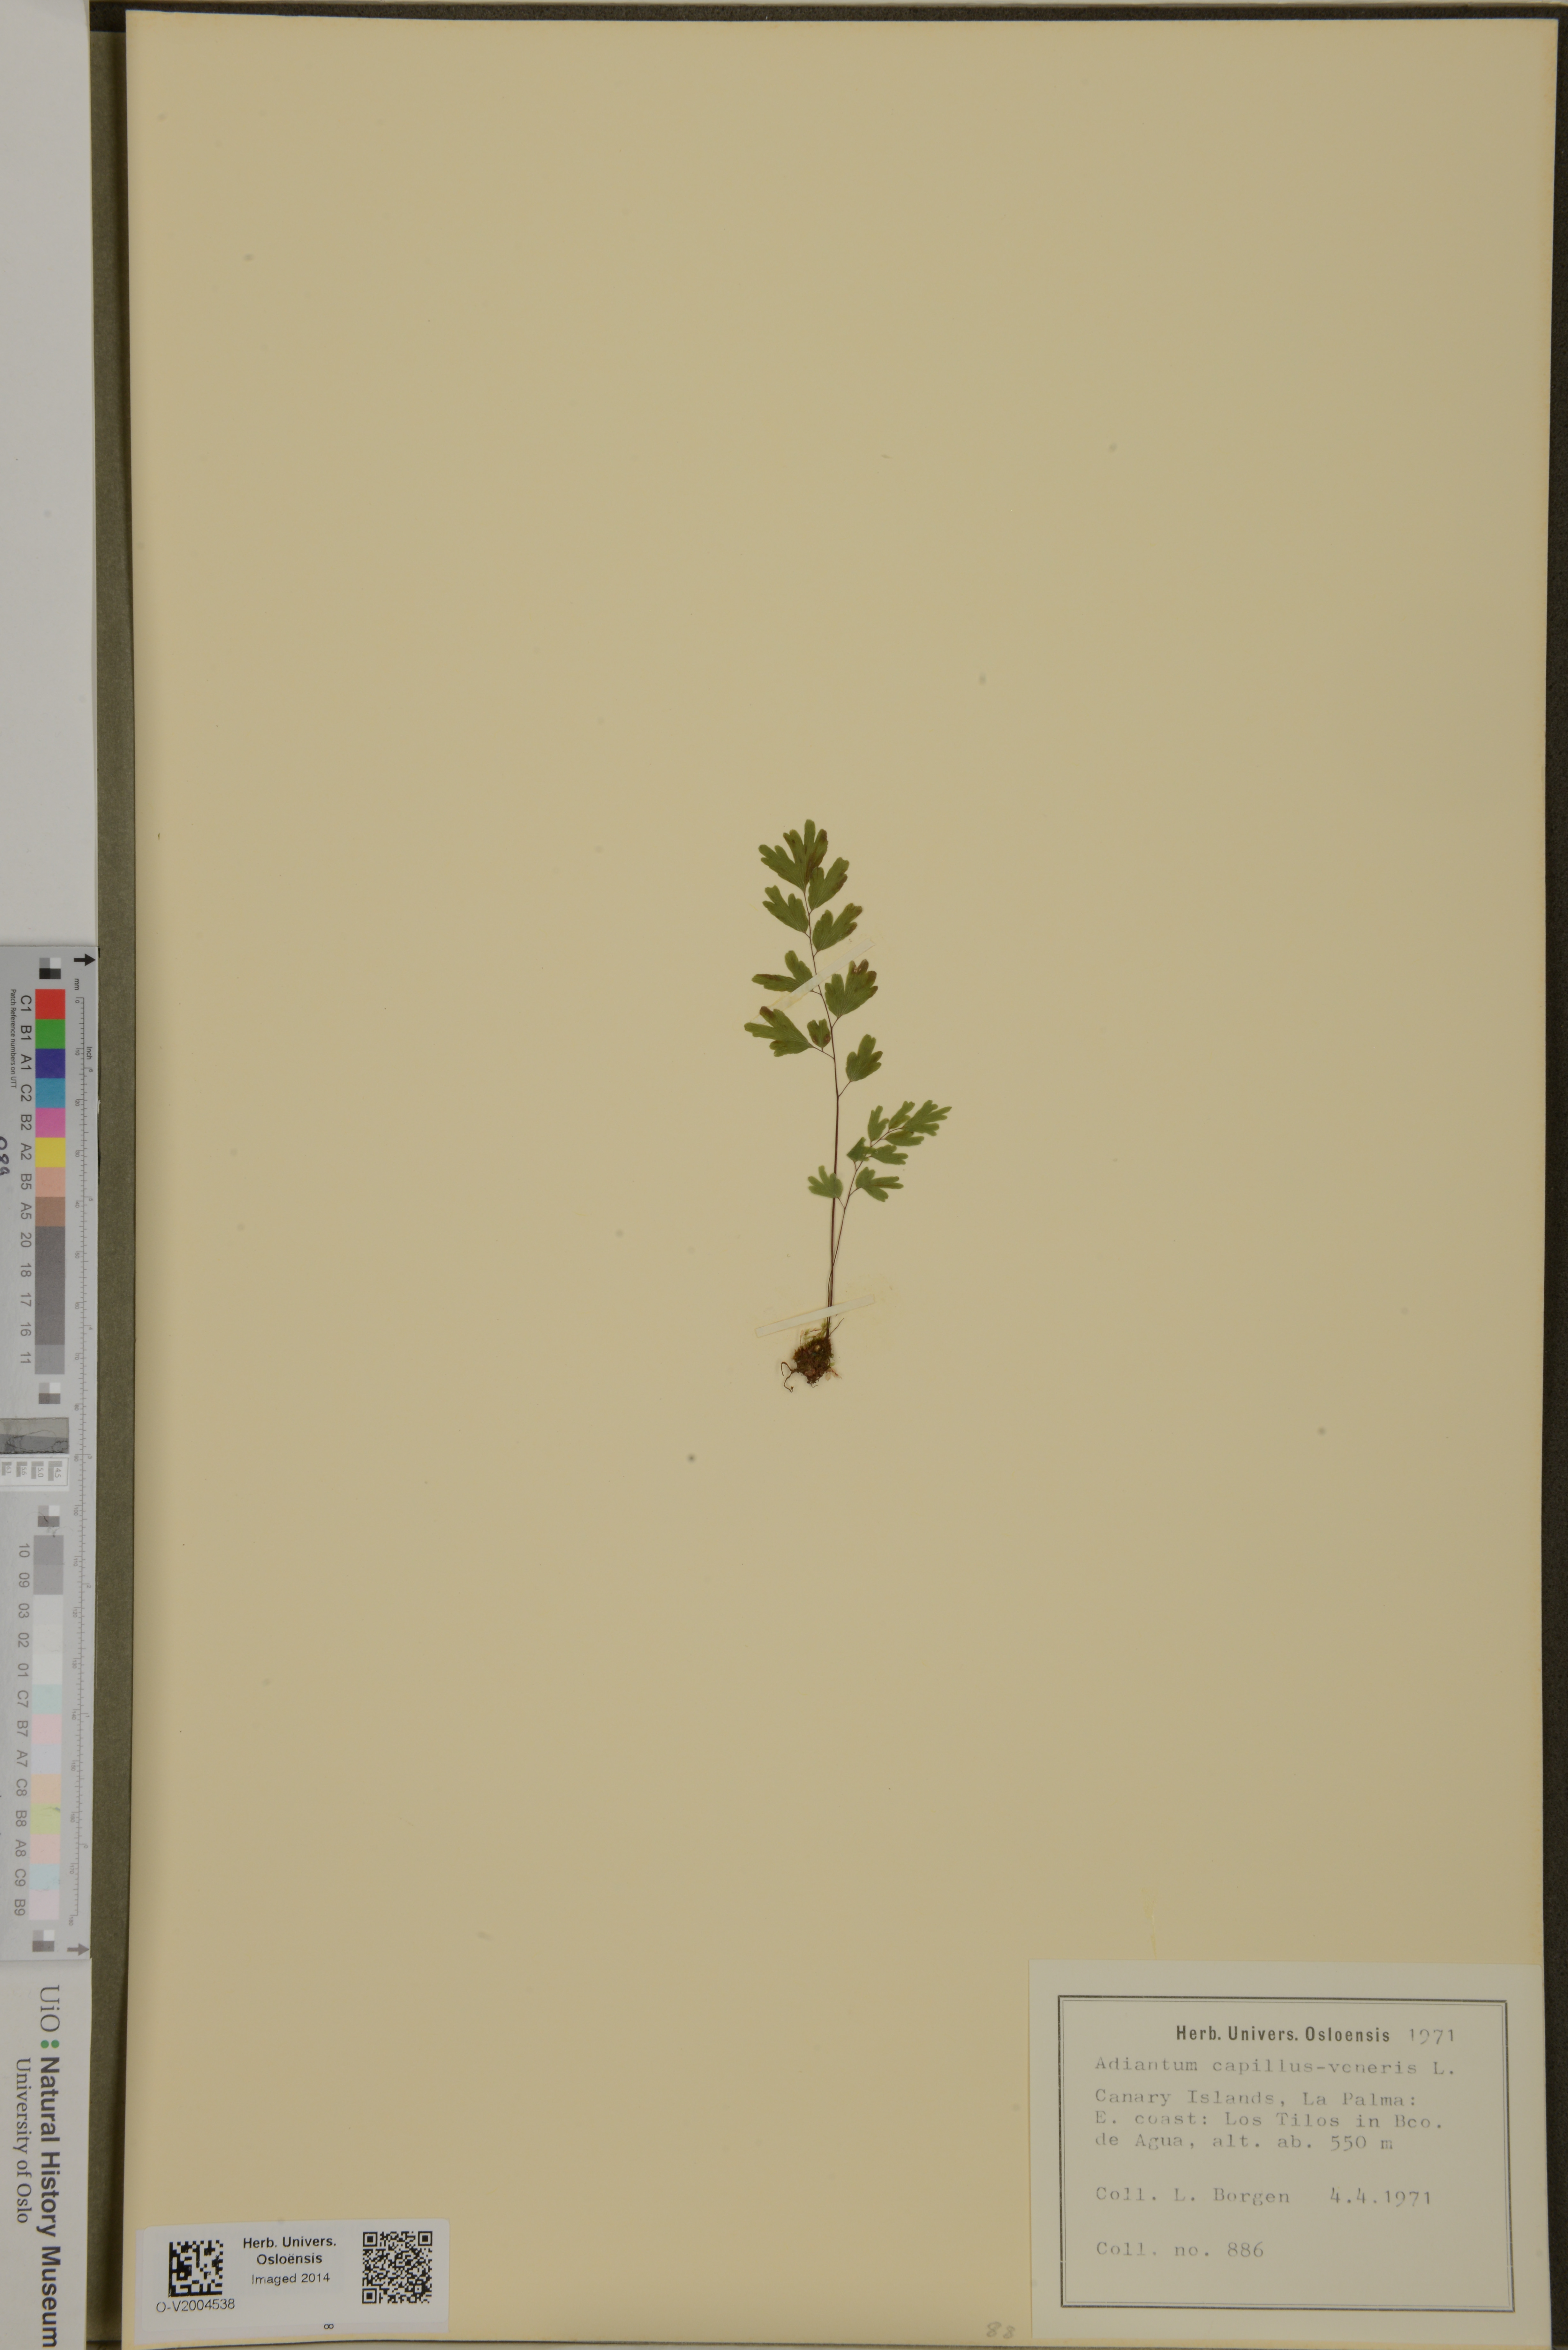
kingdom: Plantae
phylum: Tracheophyta
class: Polypodiopsida
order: Polypodiales
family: Pteridaceae
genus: Adiantum
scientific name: Adiantum capillus-veneris
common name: Maidenhair fern
